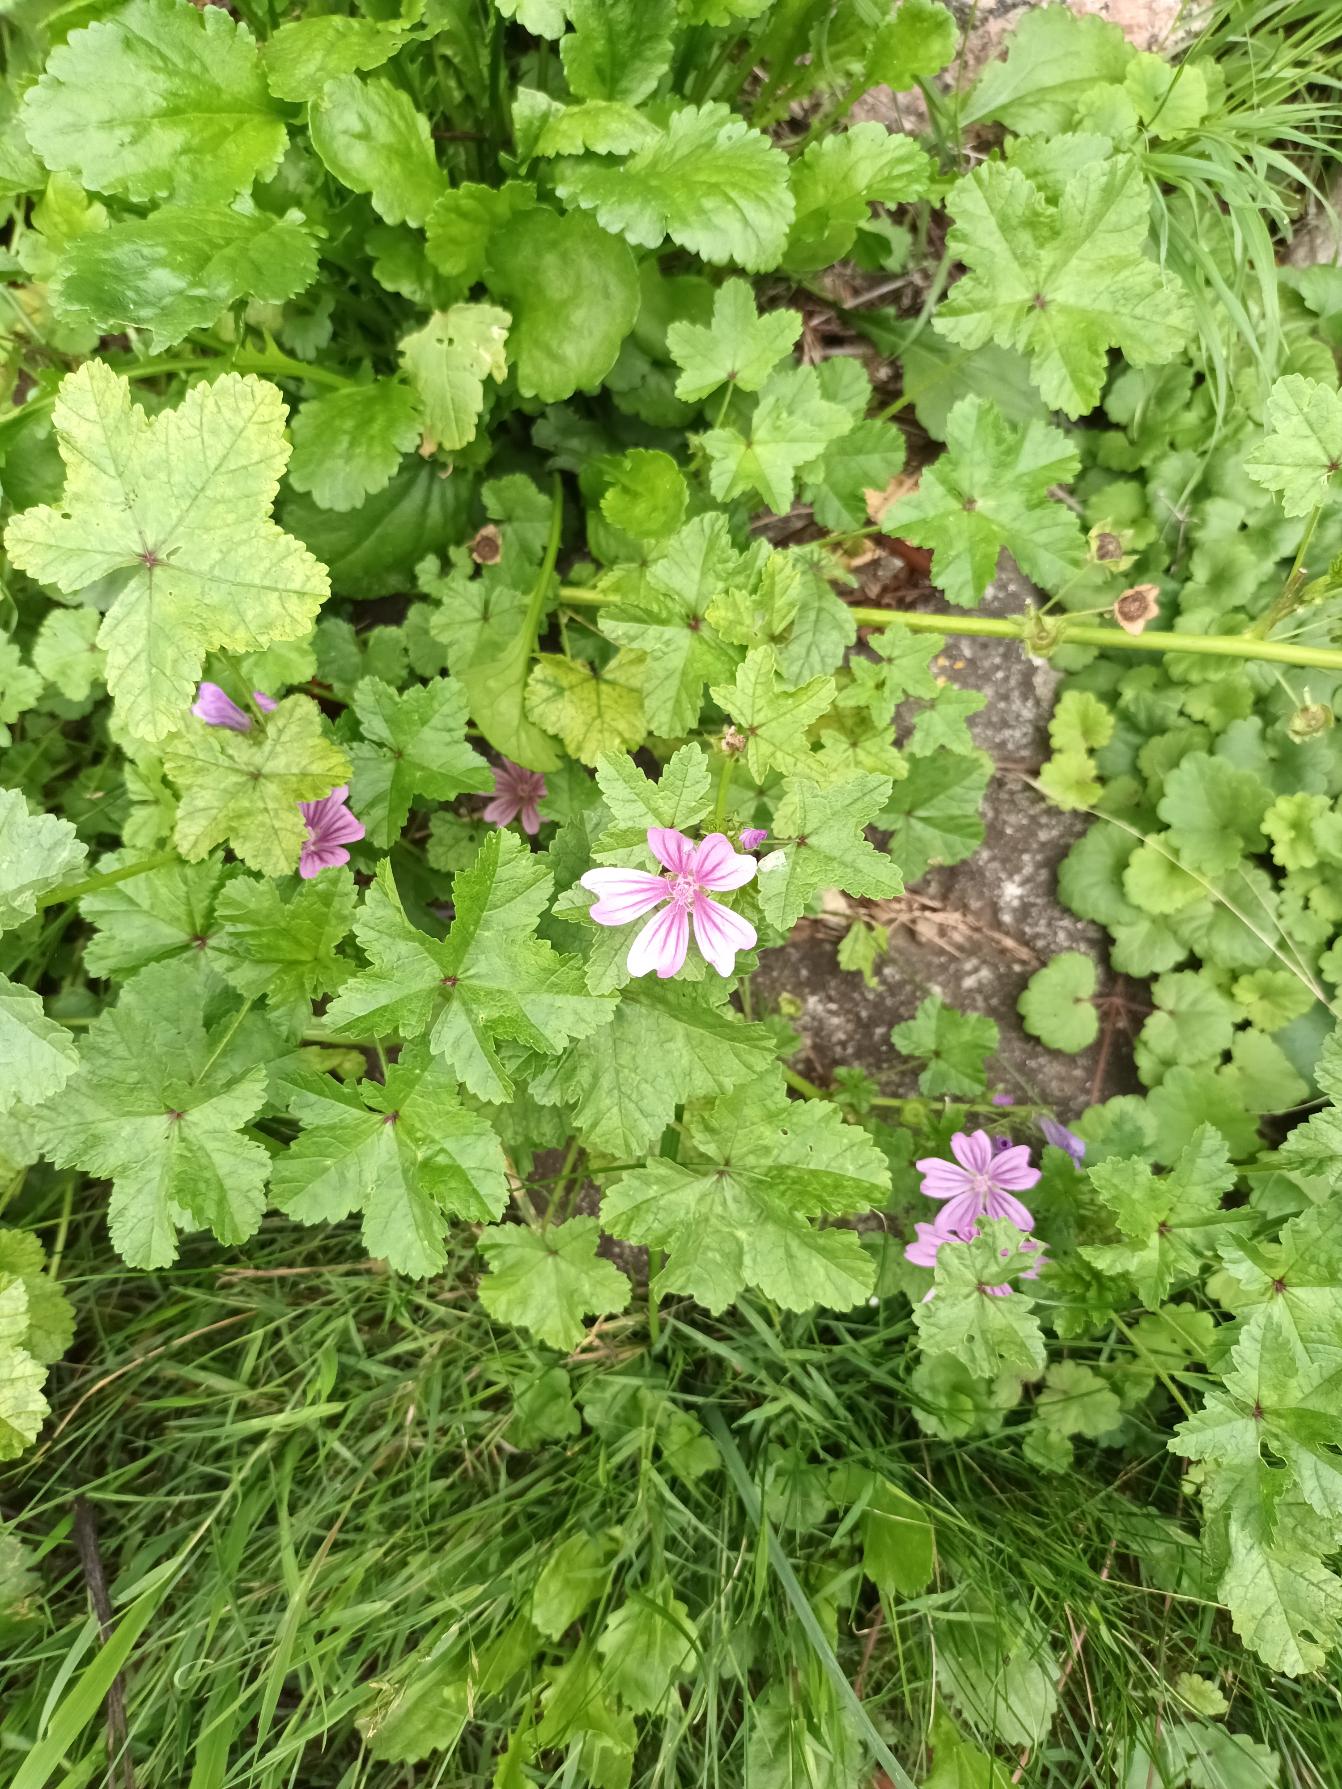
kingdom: Plantae
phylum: Tracheophyta
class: Magnoliopsida
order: Malvales
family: Malvaceae
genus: Malva
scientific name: Malva sylvestris
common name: Almindelig katost
